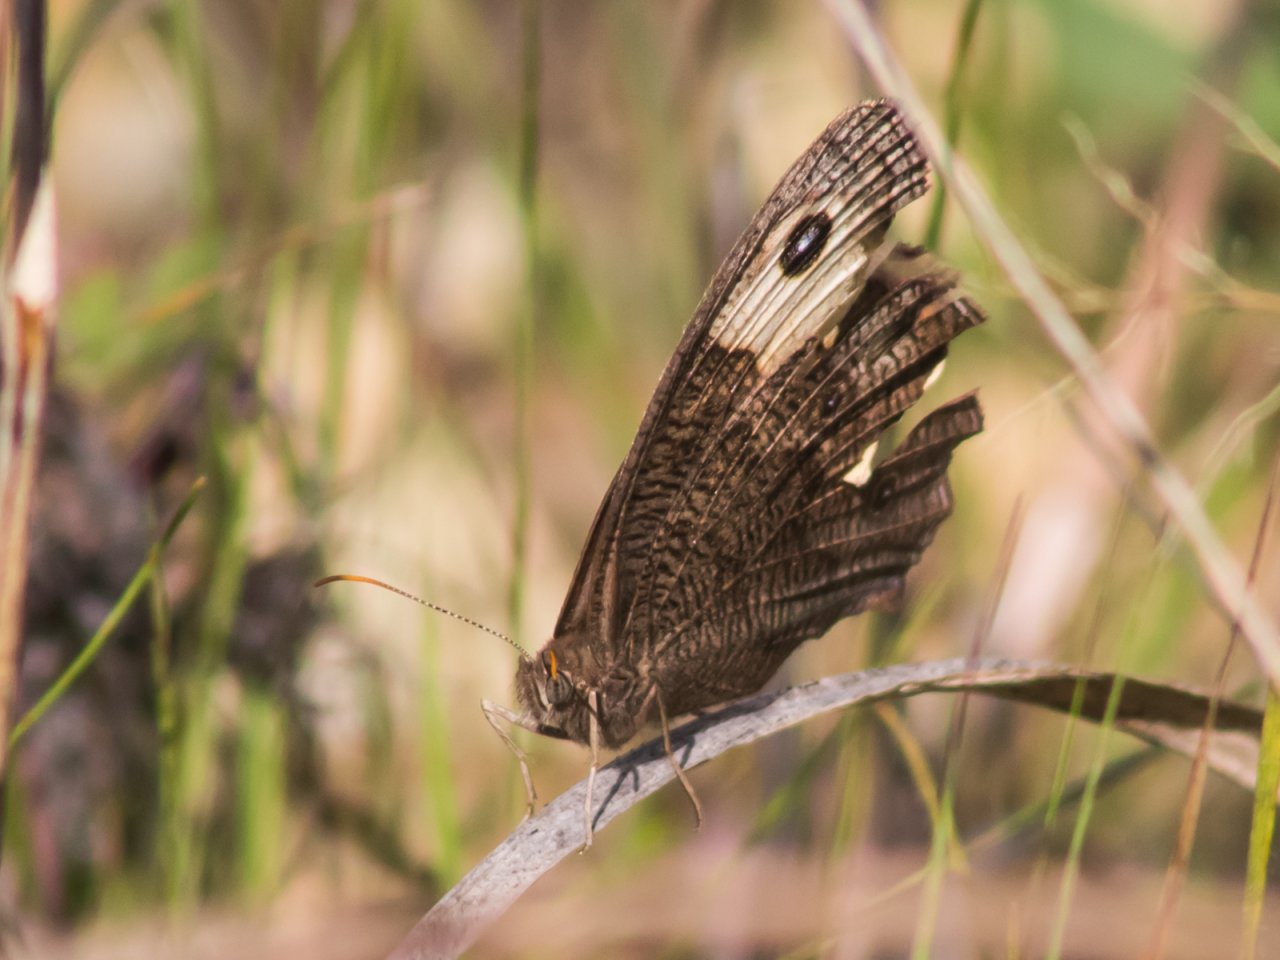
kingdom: Animalia
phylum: Arthropoda
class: Insecta
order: Lepidoptera
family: Nymphalidae
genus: Cercyonis
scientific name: Cercyonis pegala
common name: Common Wood-Nymph
